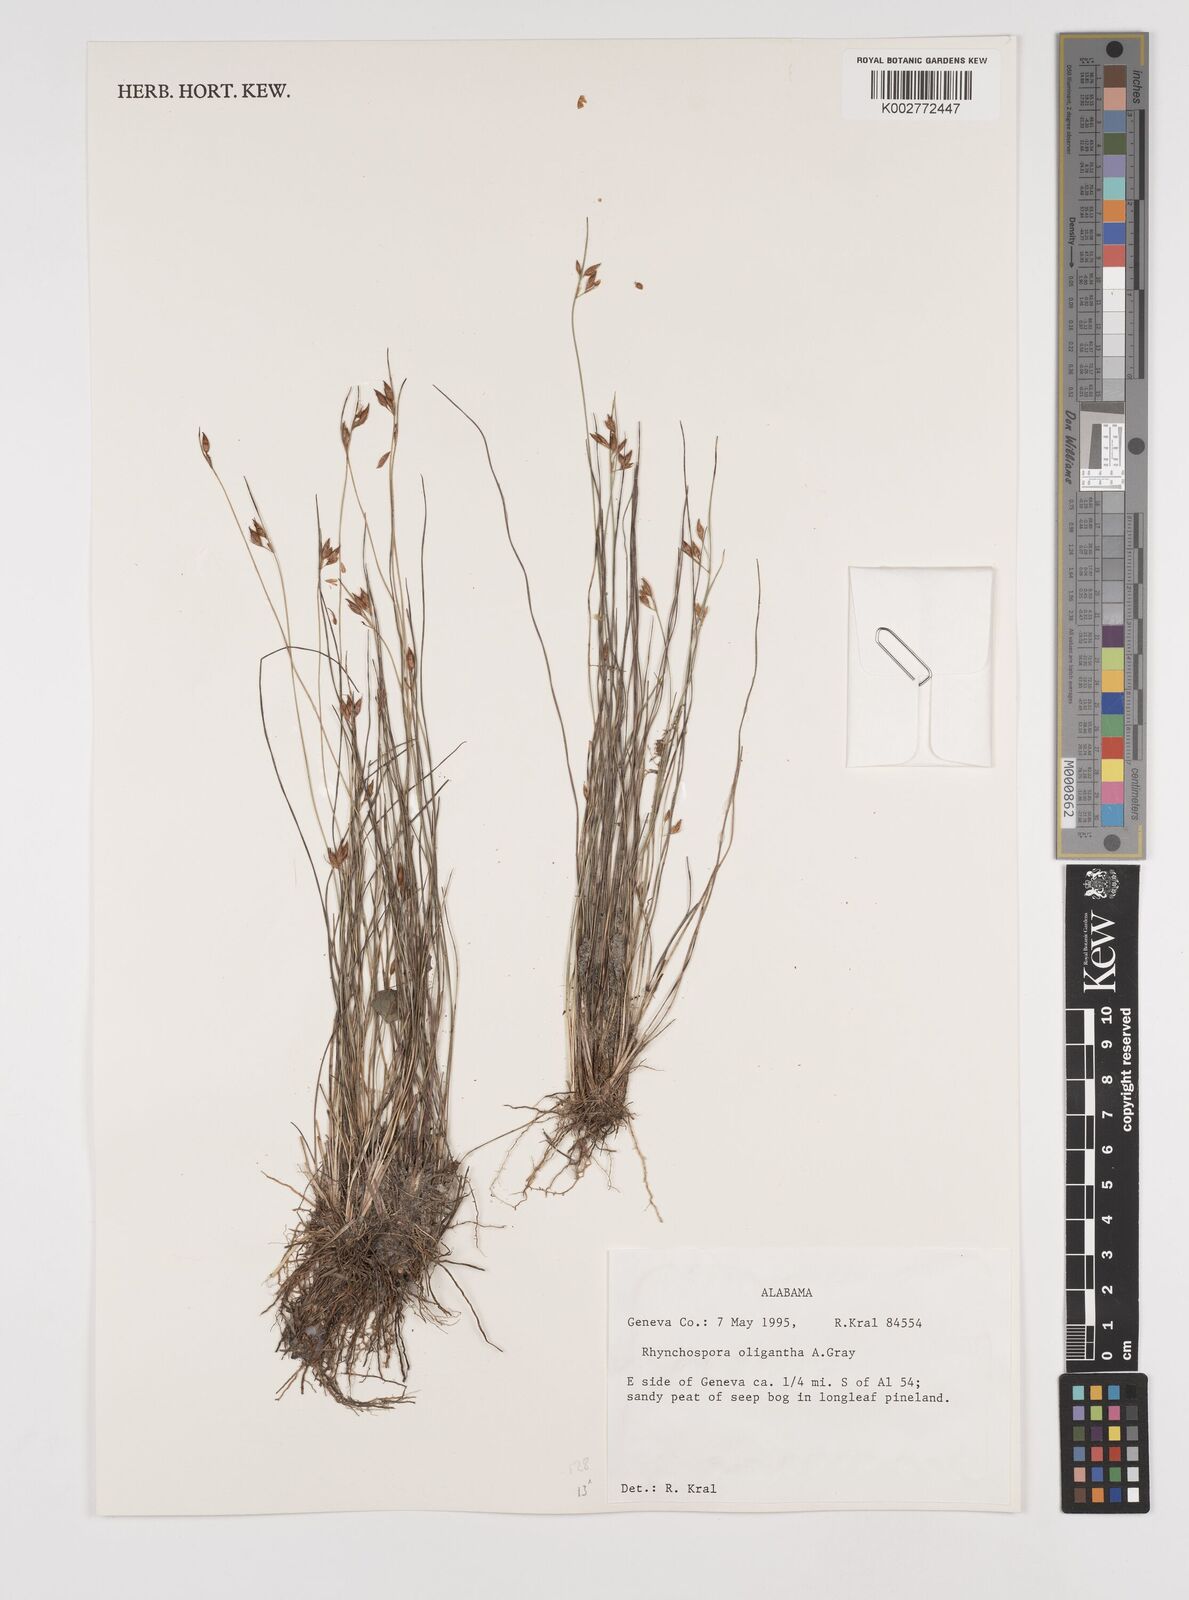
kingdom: Plantae
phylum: Tracheophyta
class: Liliopsida
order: Poales
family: Cyperaceae
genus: Rhynchospora
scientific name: Rhynchospora oligantha
